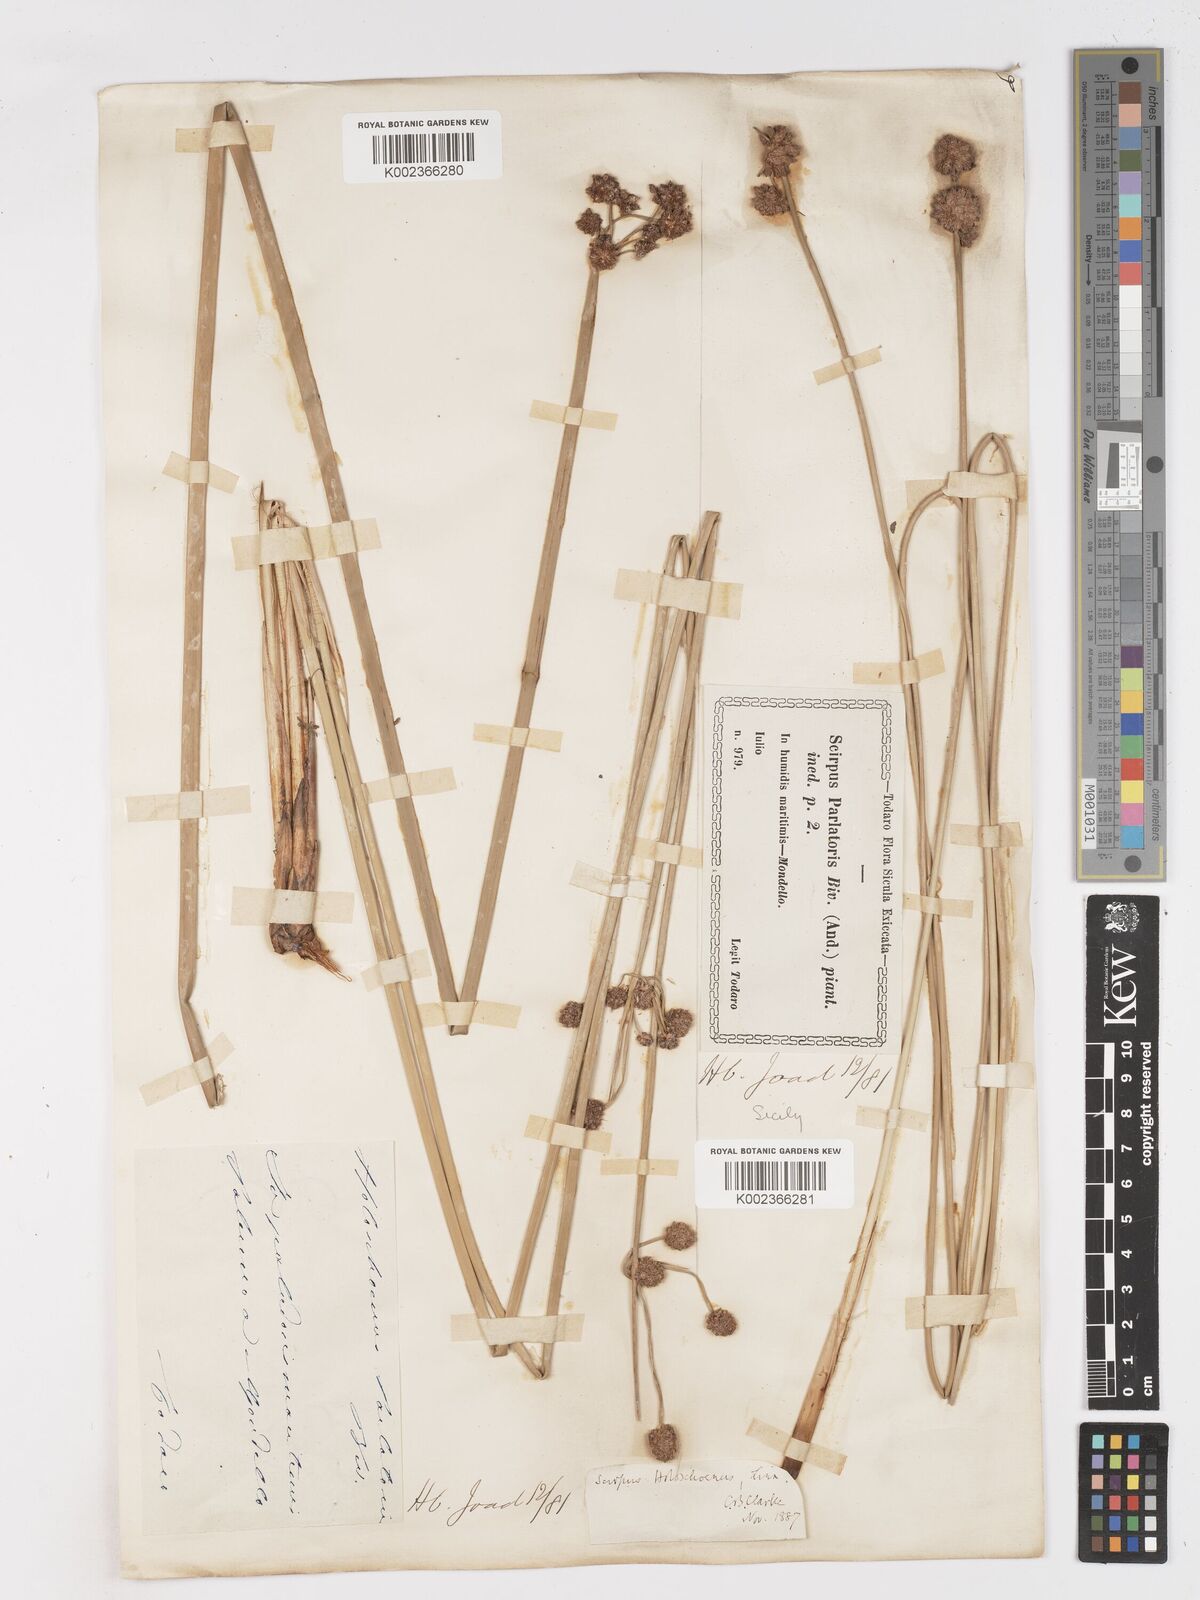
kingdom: Plantae
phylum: Tracheophyta
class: Liliopsida
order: Poales
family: Cyperaceae
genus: Scirpoides
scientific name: Scirpoides holoschoenus
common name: Round-headed club-rush
